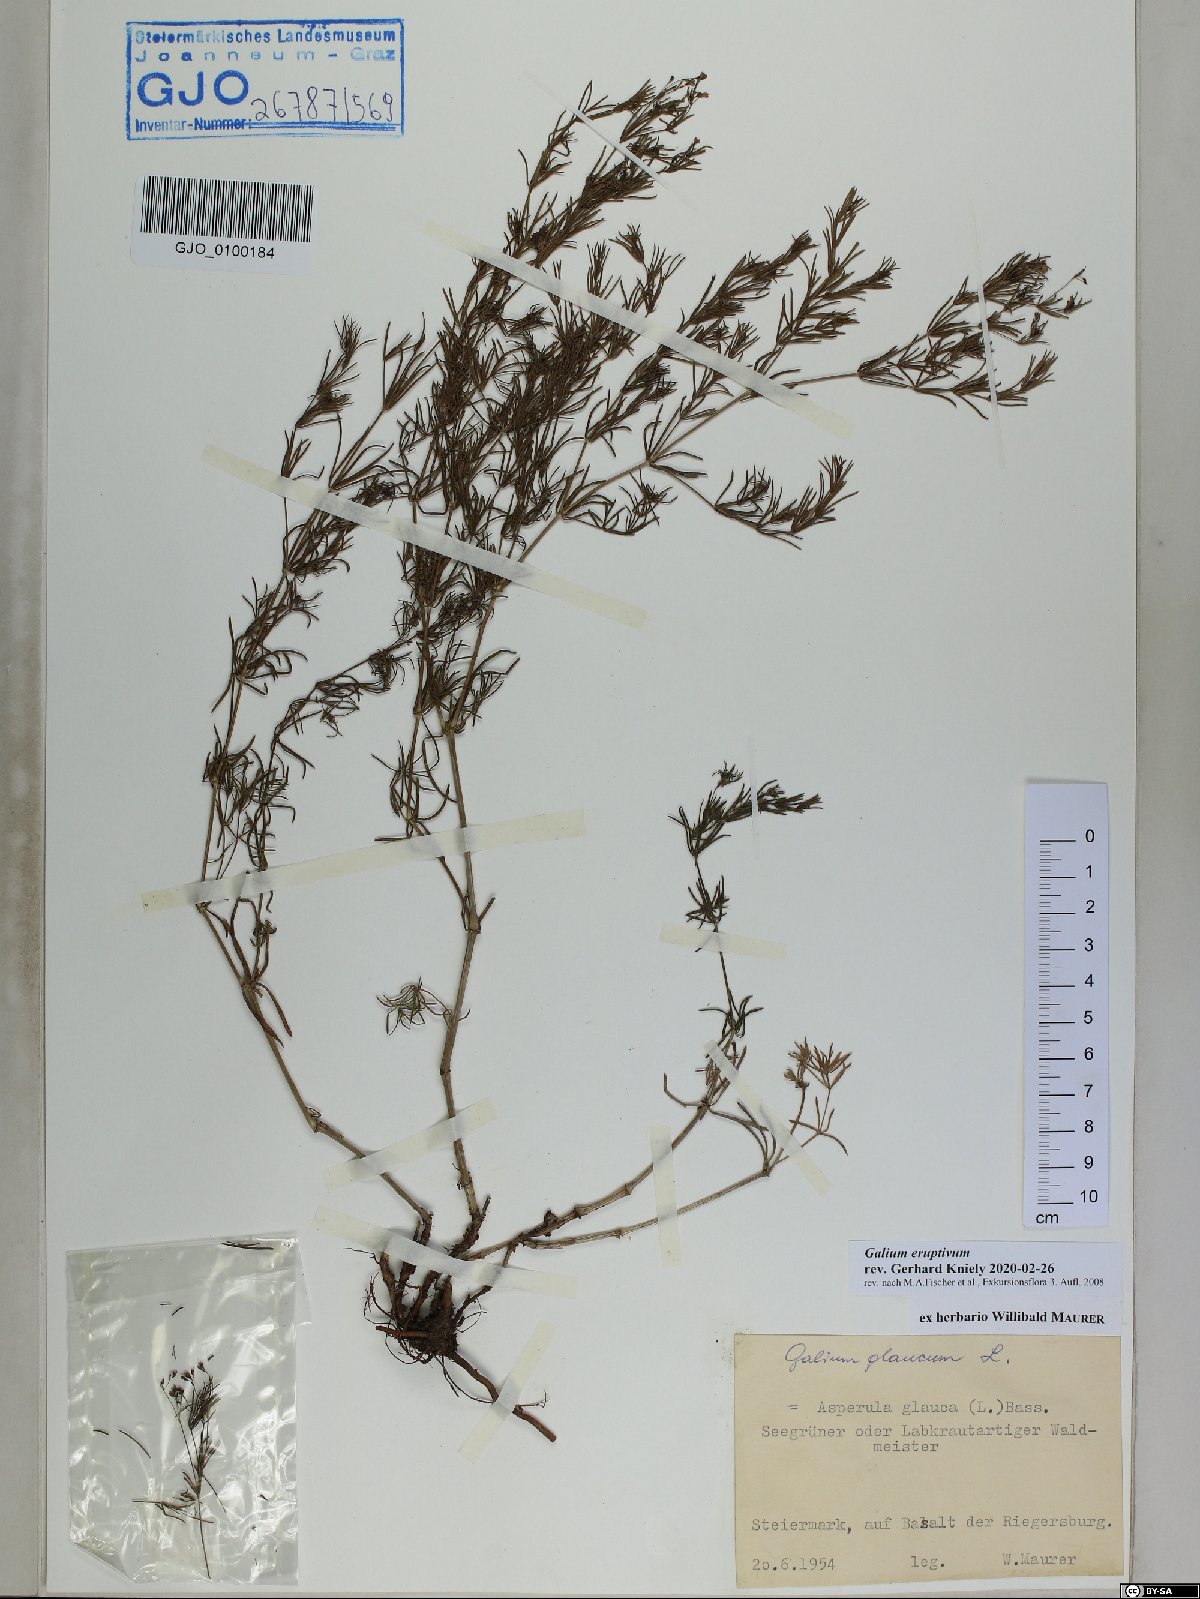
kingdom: Plantae
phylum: Tracheophyta
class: Magnoliopsida
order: Gentianales
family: Rubiaceae
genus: Galium
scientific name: Galium eruptivum
